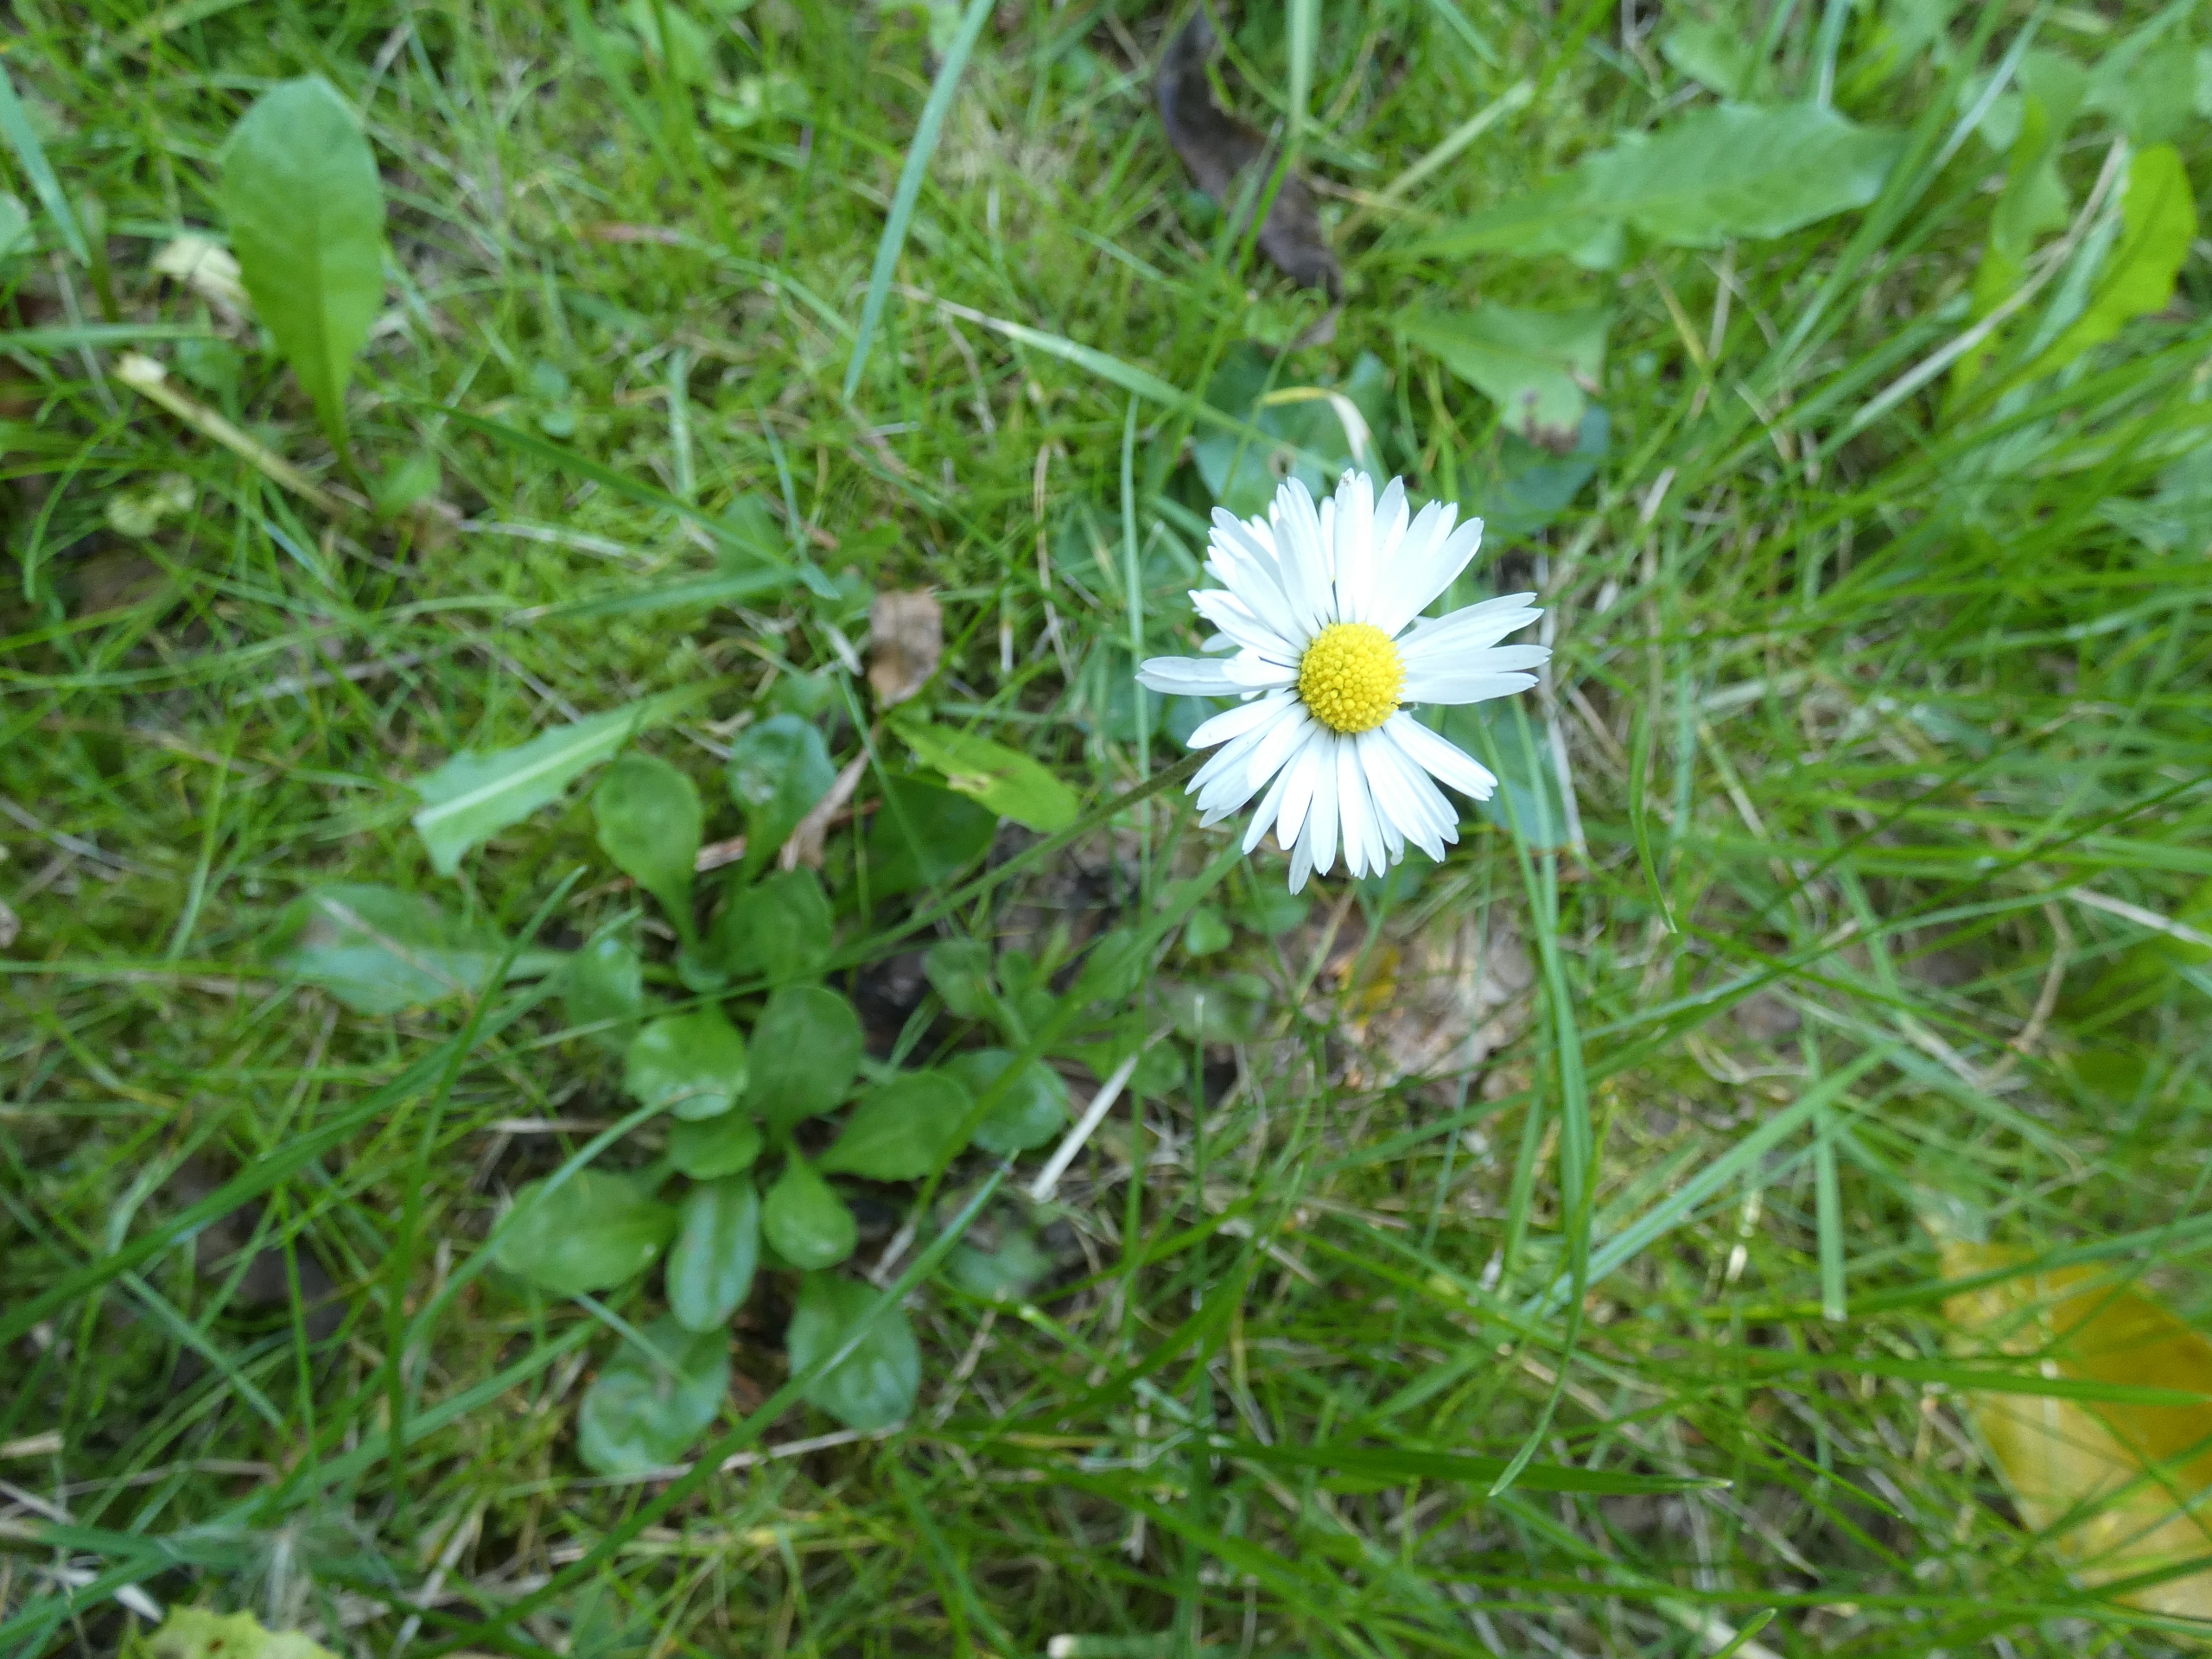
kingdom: Plantae
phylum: Tracheophyta
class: Magnoliopsida
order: Asterales
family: Asteraceae
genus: Bellis
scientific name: Bellis perennis
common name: Tusindfryd
